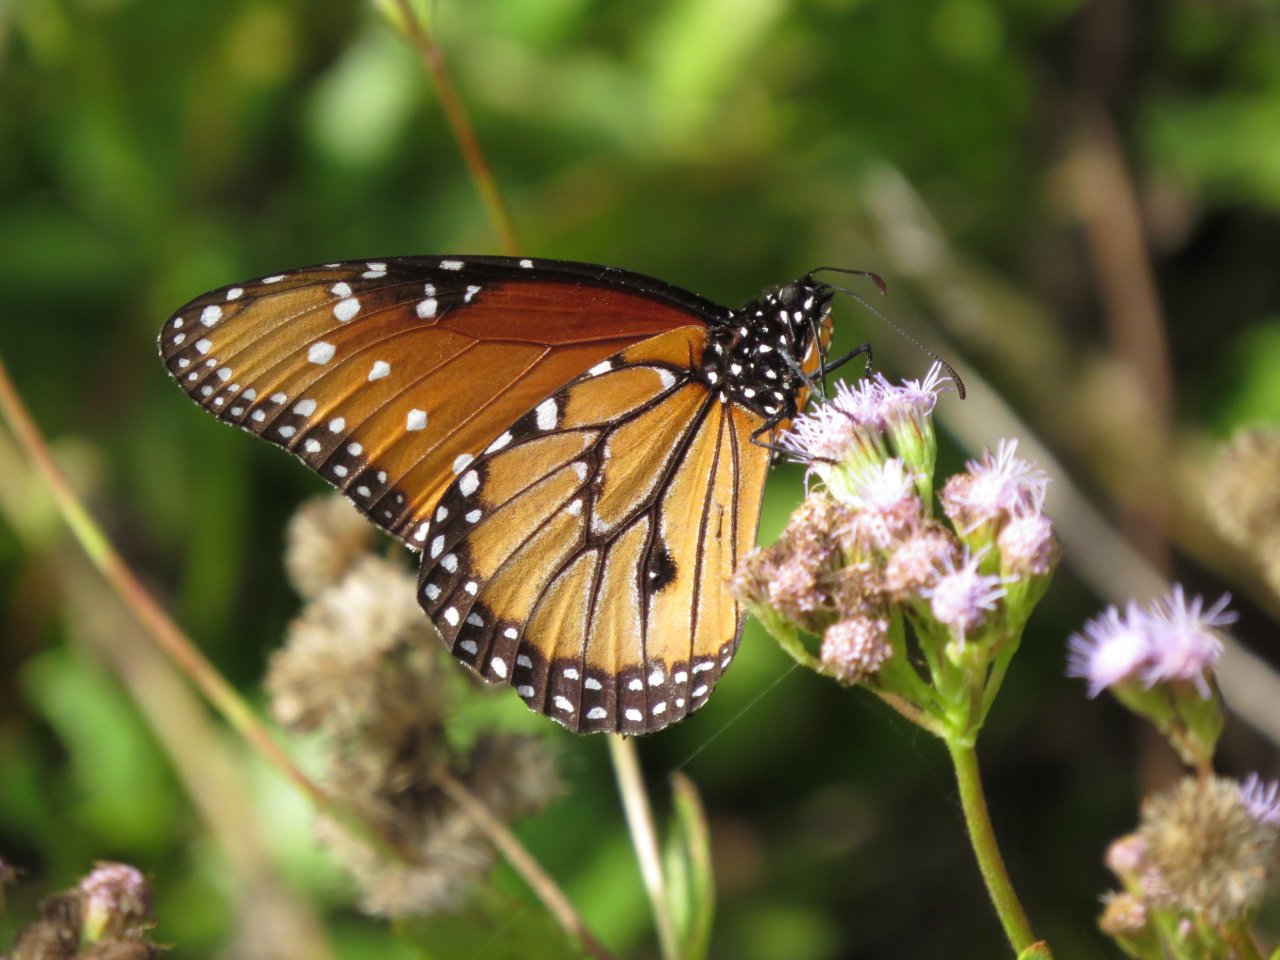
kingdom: Animalia
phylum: Arthropoda
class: Insecta
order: Lepidoptera
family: Nymphalidae
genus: Danaus
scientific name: Danaus gilippus
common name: Queen
